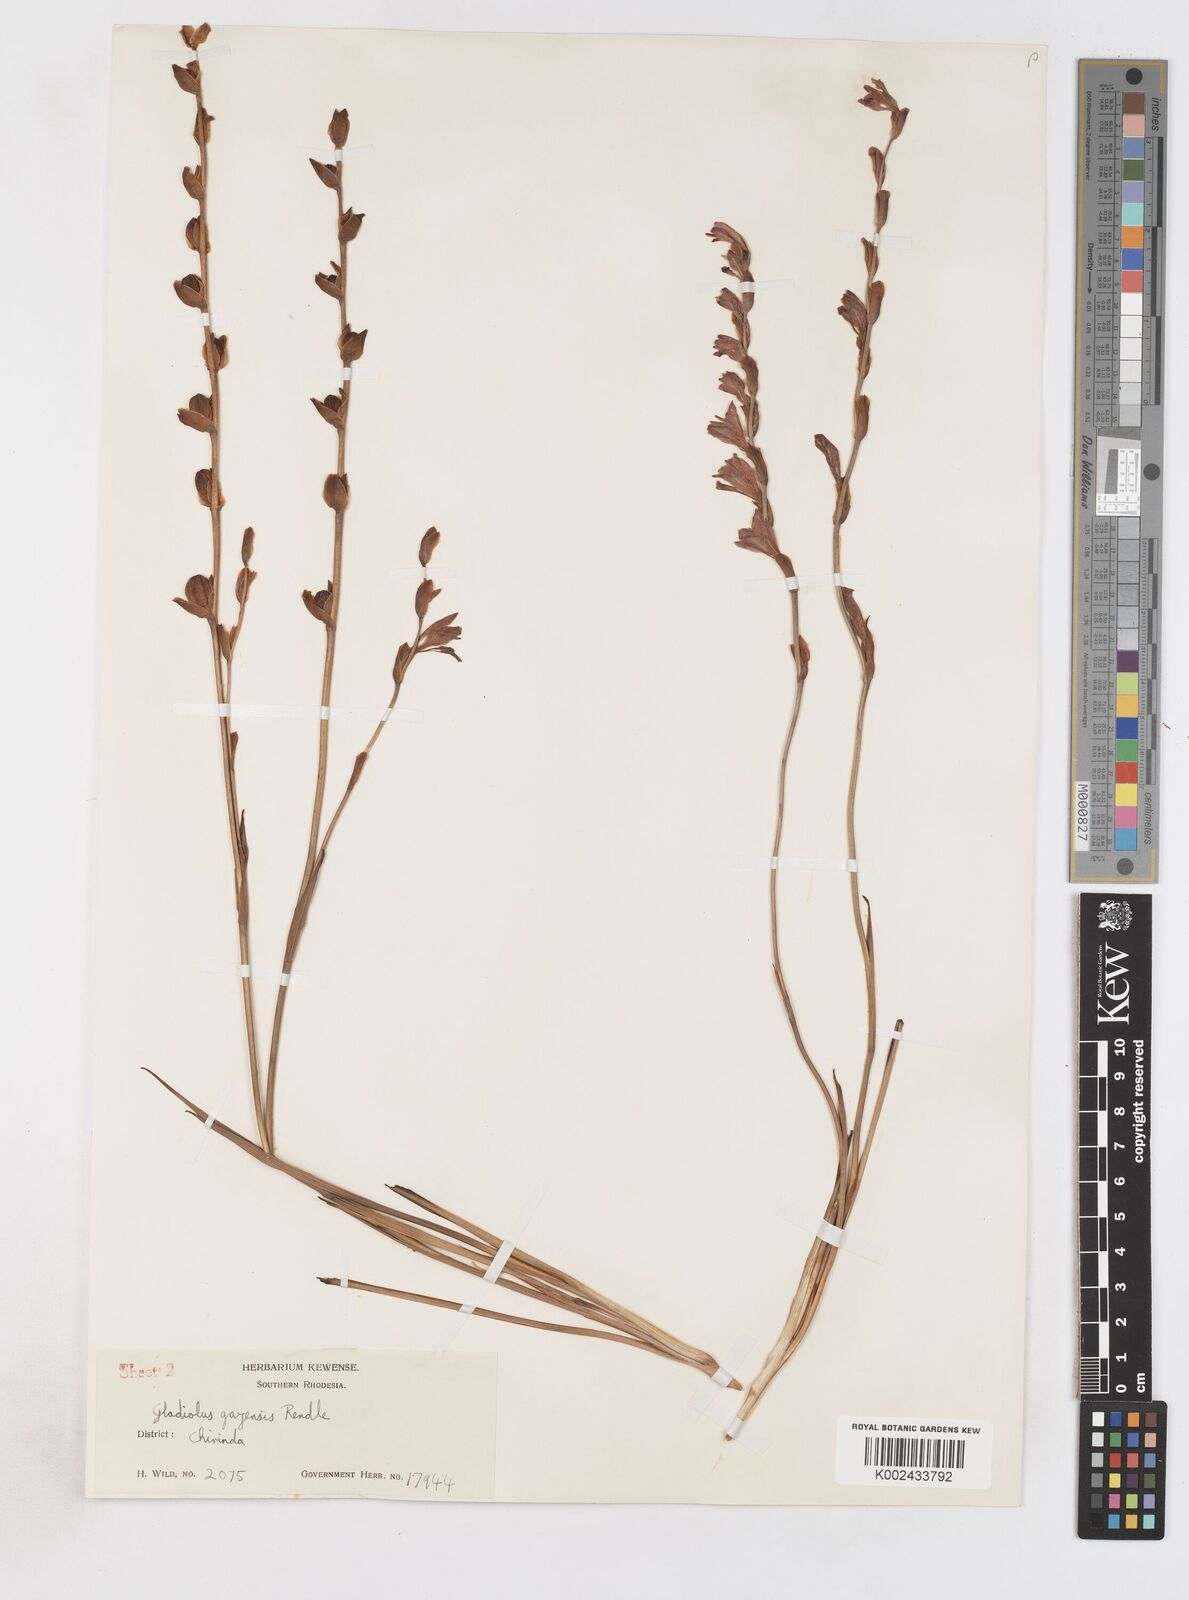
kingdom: Plantae
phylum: Tracheophyta
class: Liliopsida
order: Asparagales
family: Iridaceae
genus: Gladiolus
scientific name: Gladiolus crassifolius
